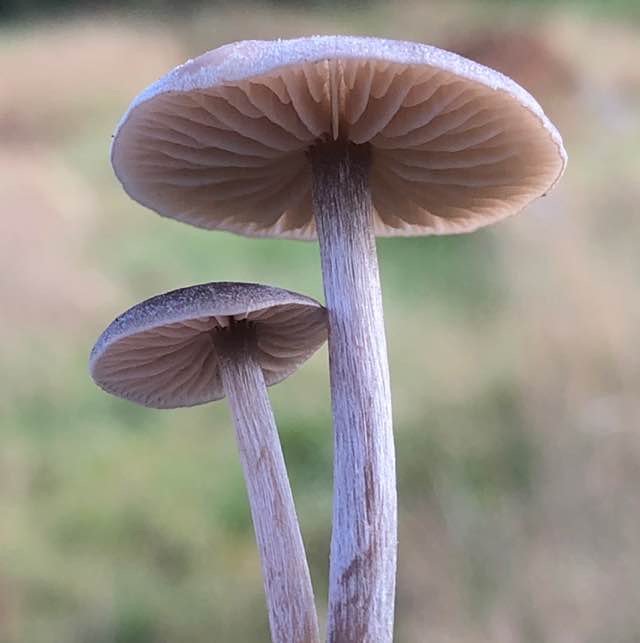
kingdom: Fungi
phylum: Basidiomycota
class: Agaricomycetes
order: Agaricales
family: Entolomataceae
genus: Entoloma
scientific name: Entoloma
